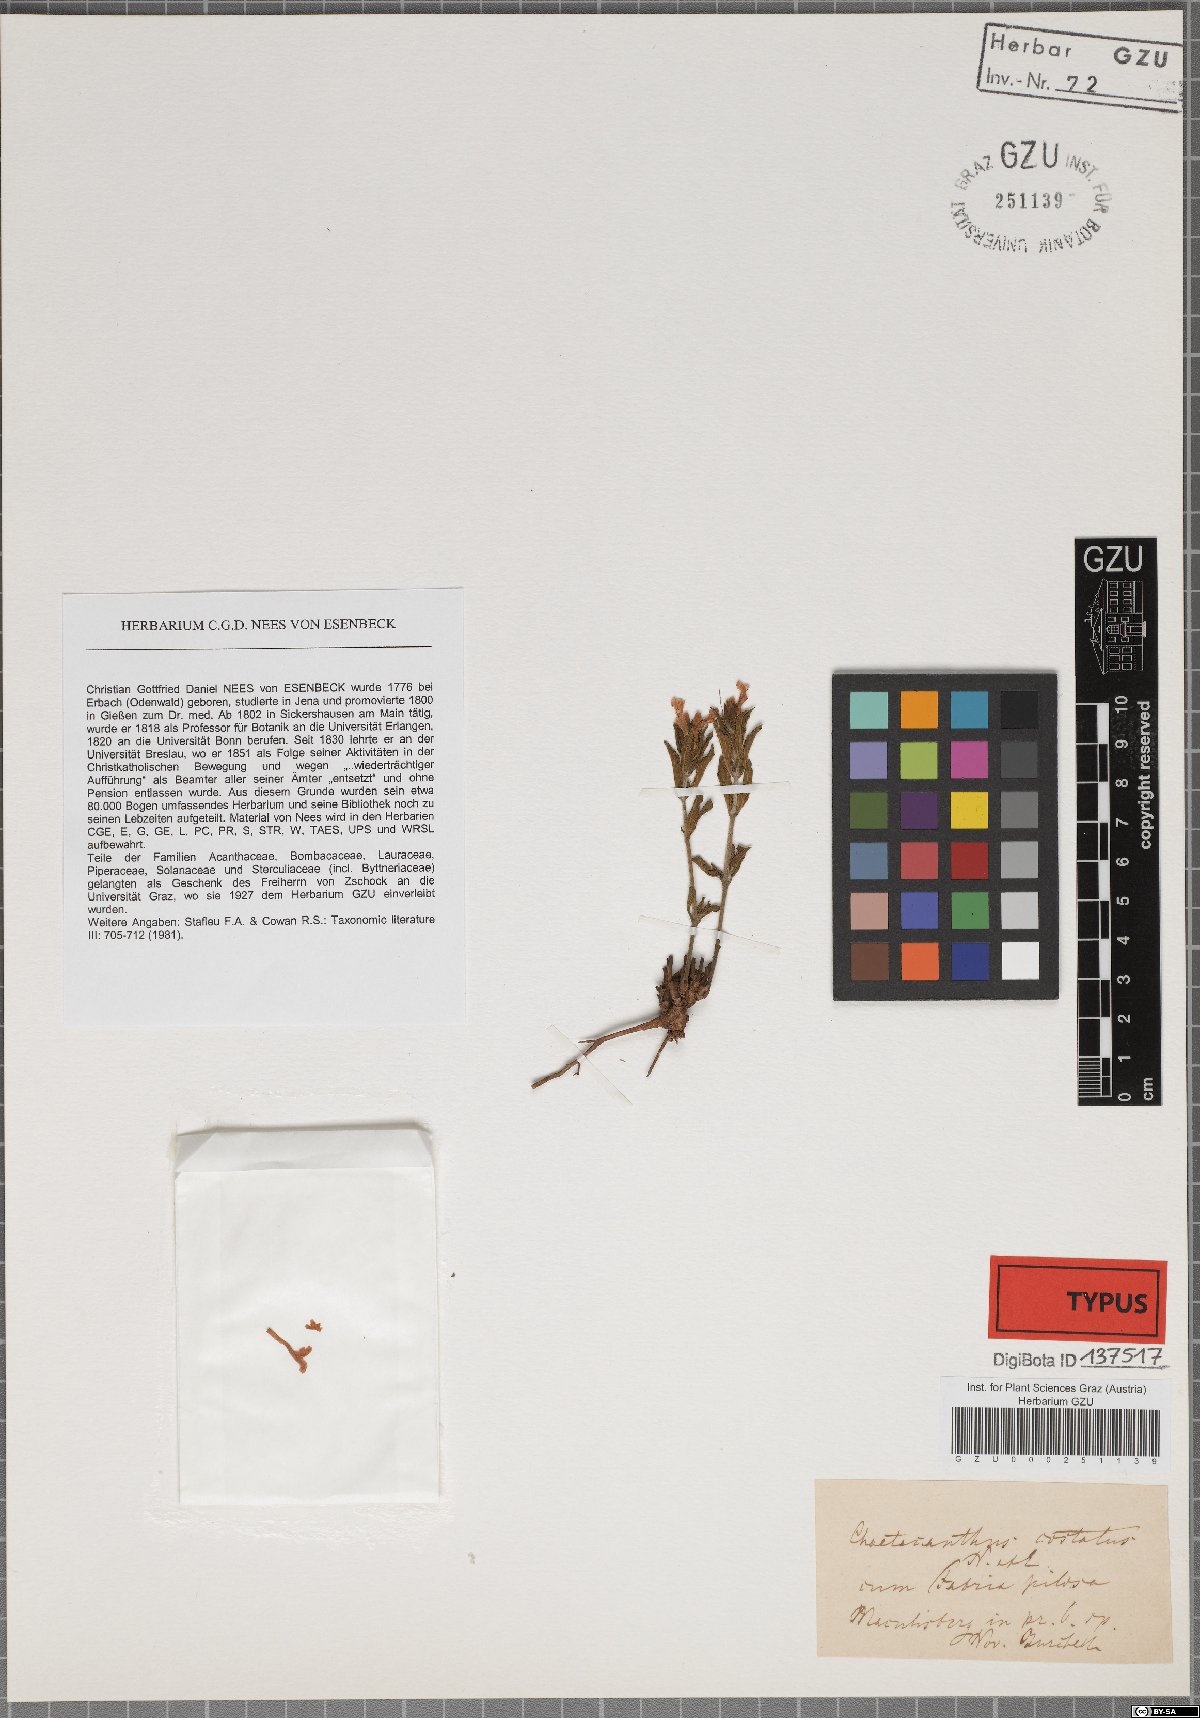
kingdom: Plantae
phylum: Tracheophyta
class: Magnoliopsida
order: Lamiales
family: Acanthaceae
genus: Dyschoriste
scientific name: Dyschoriste costata
